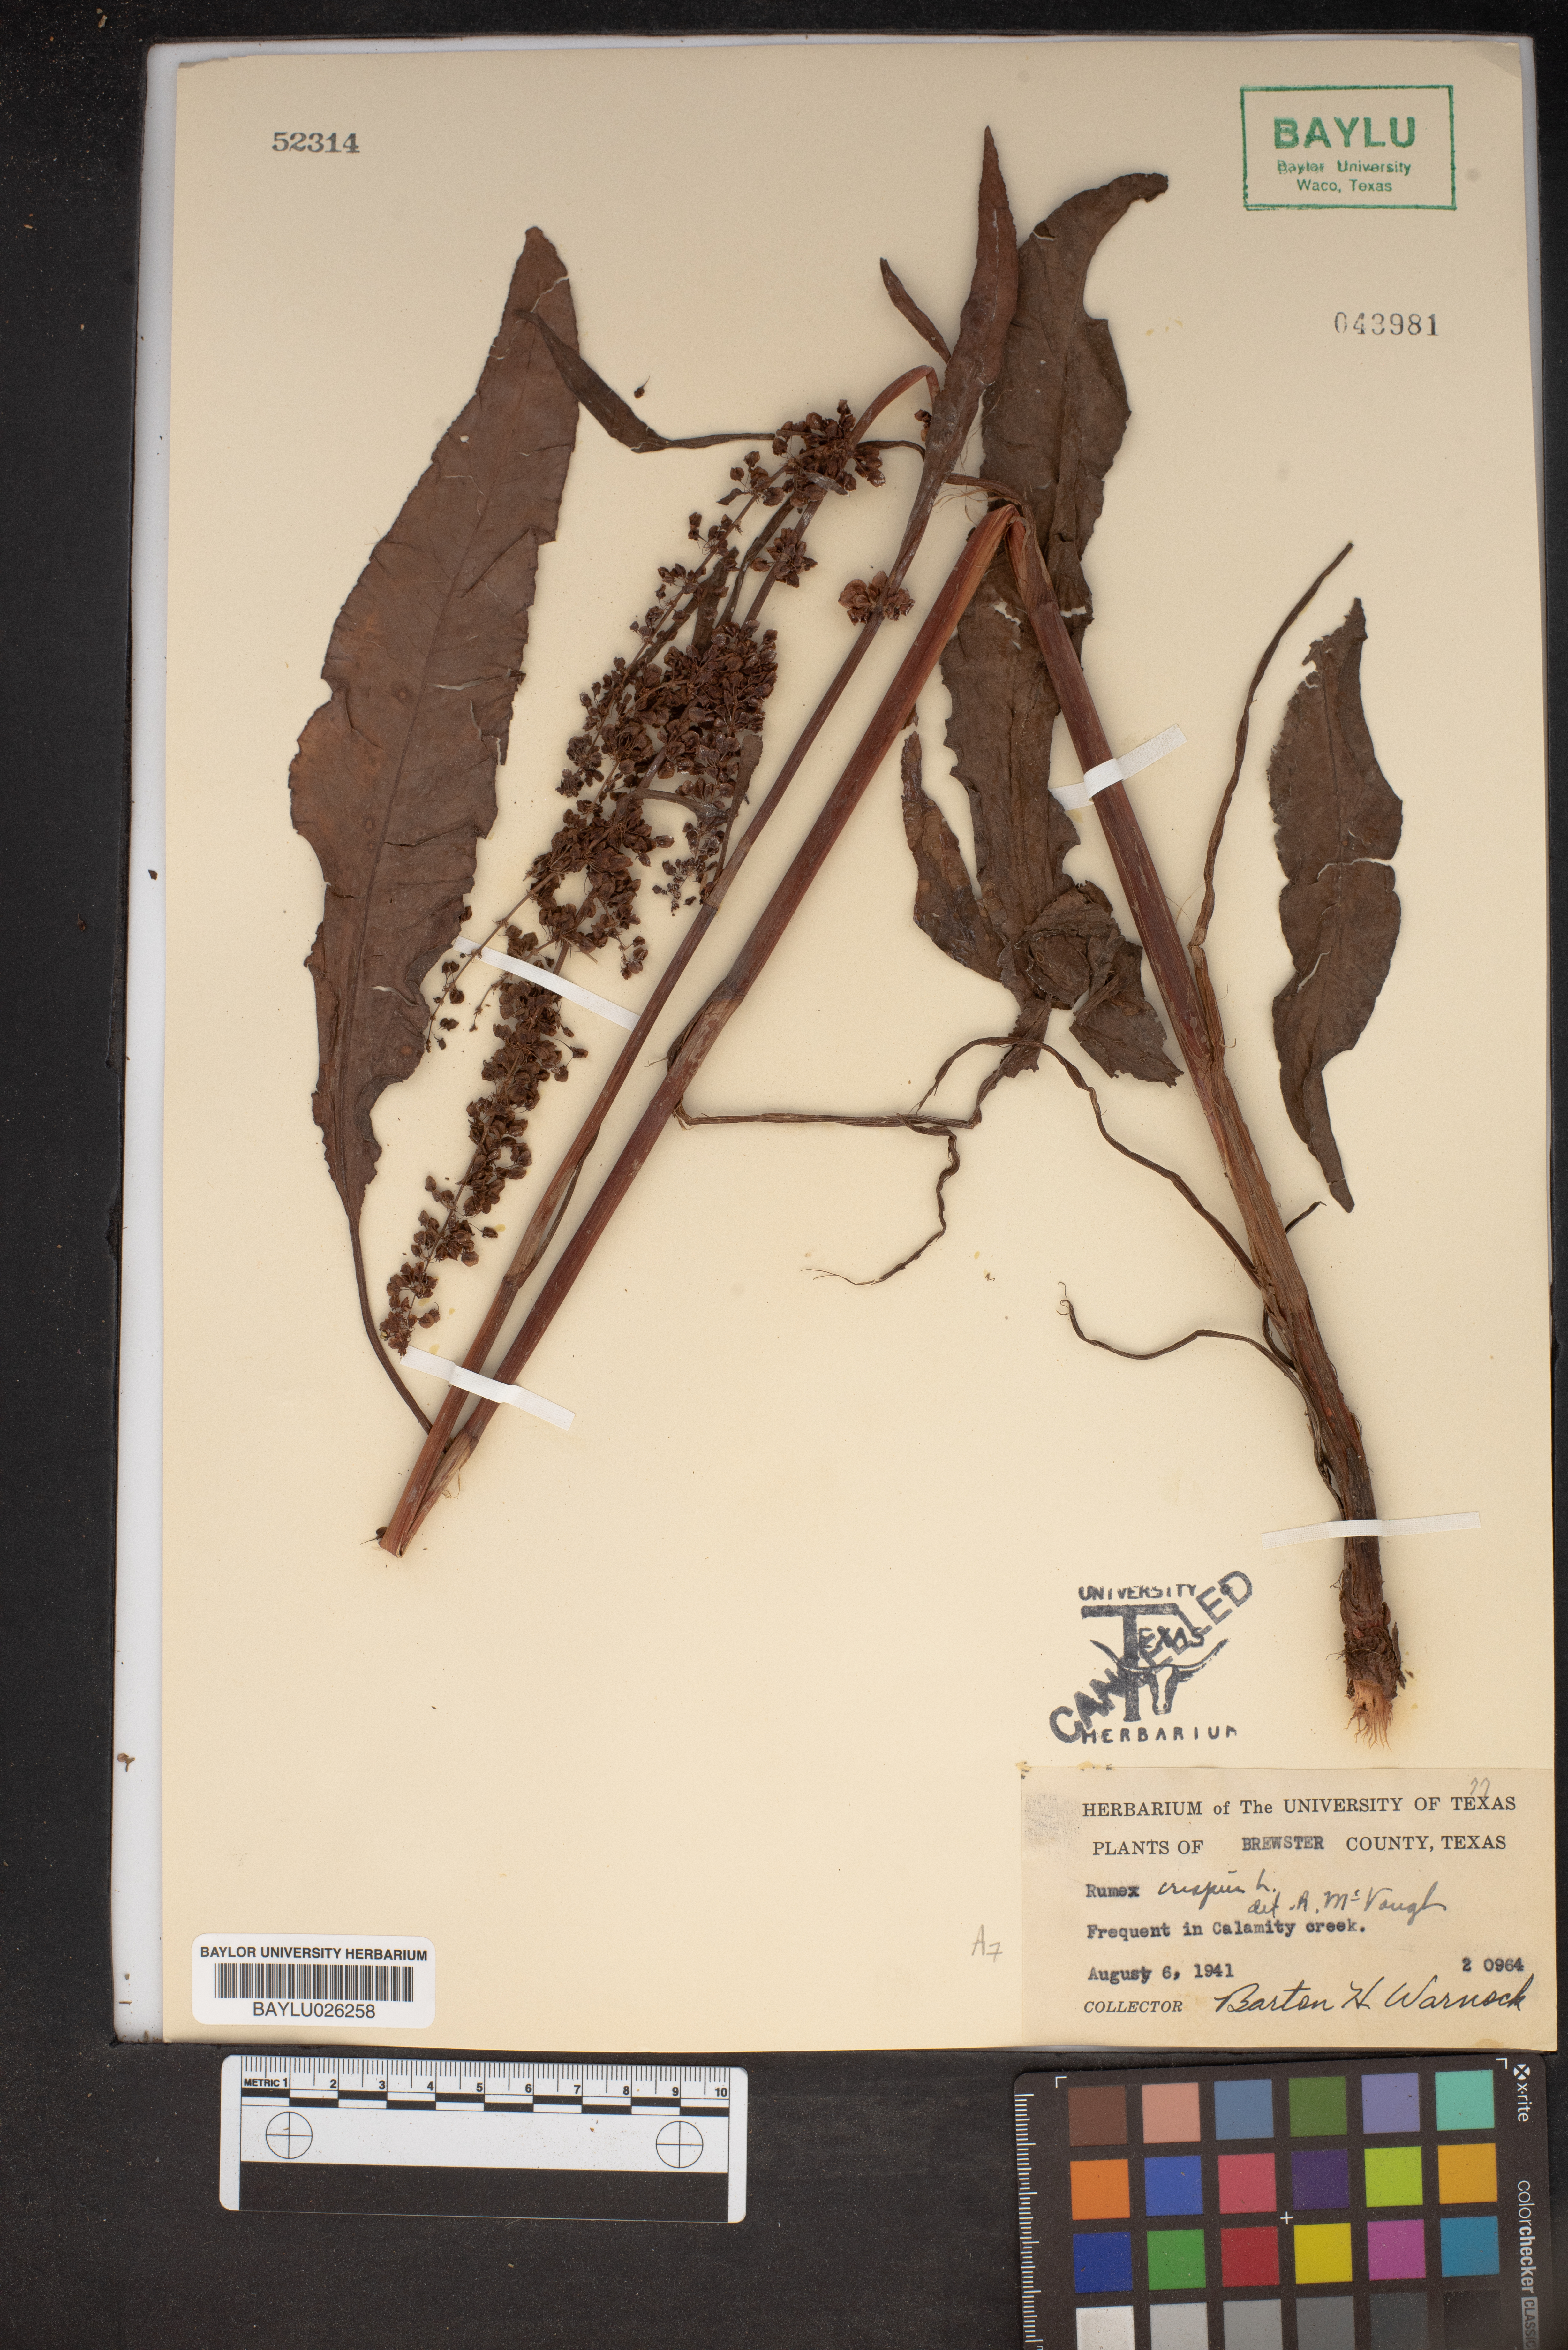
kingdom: Plantae
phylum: Tracheophyta
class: Magnoliopsida
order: Caryophyllales
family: Polygonaceae
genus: Rumex
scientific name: Rumex crispus
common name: Curled dock
